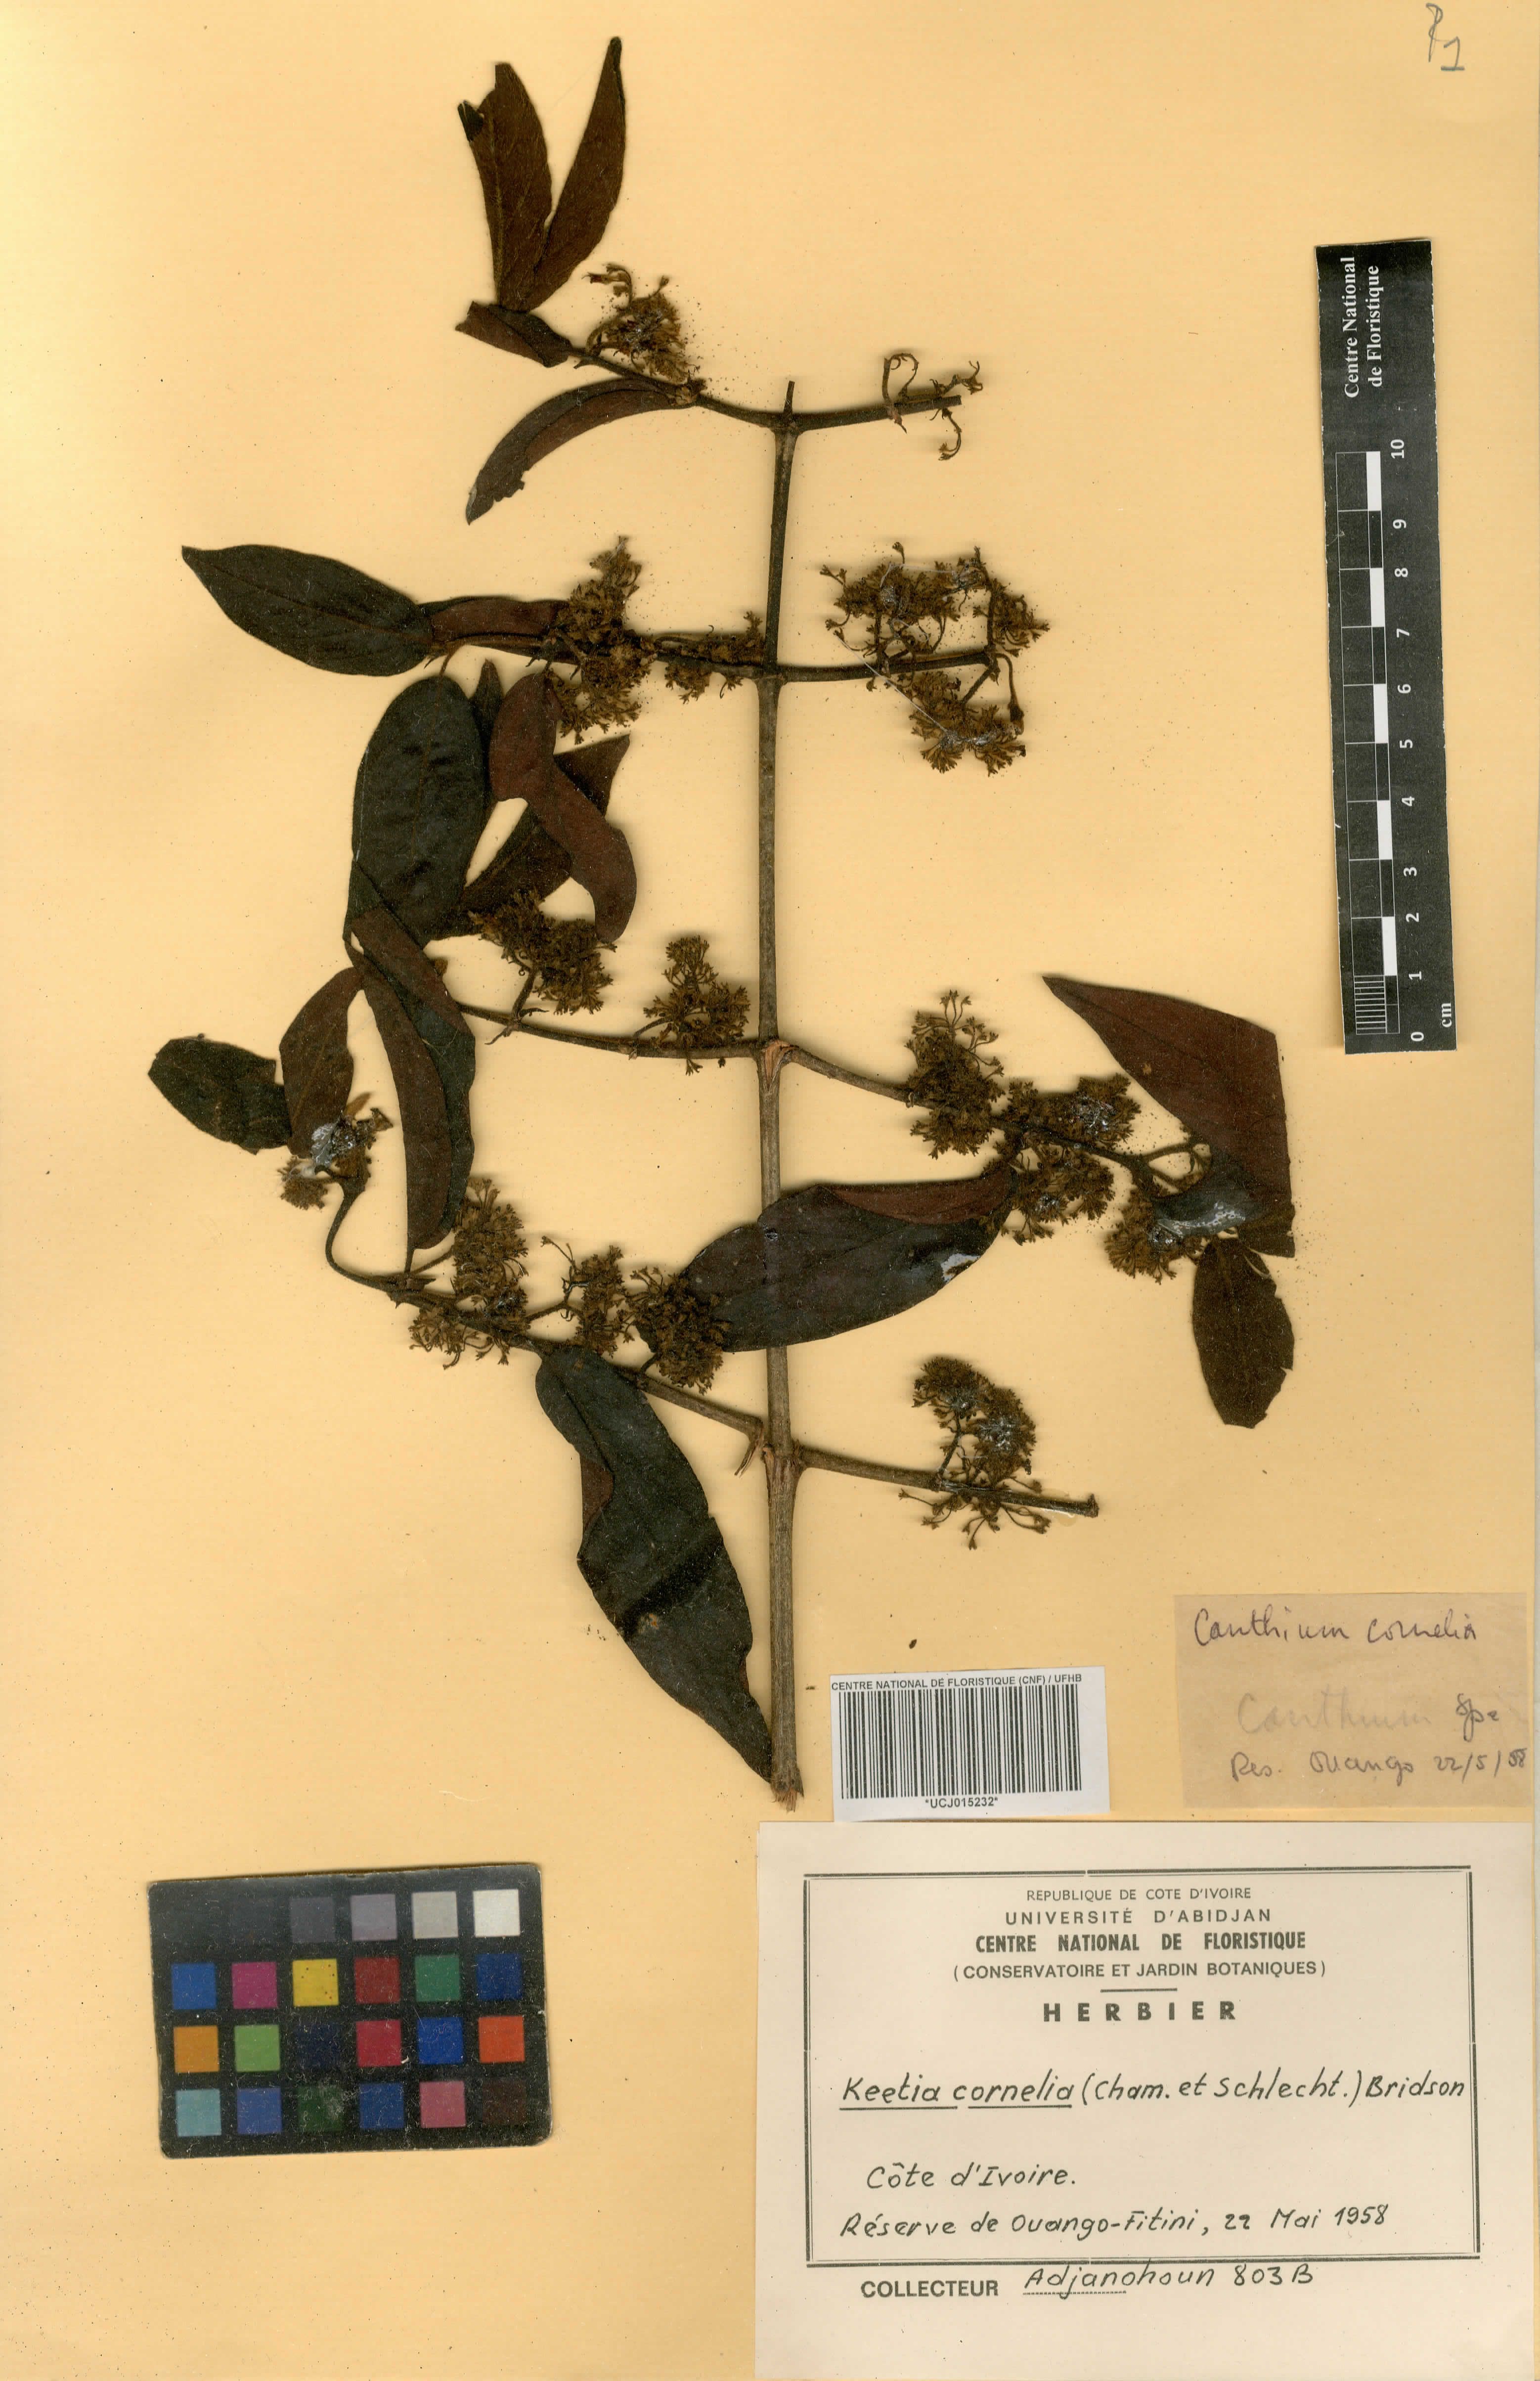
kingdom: Plantae
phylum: Tracheophyta
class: Magnoliopsida
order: Gentianales
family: Rubiaceae
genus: Keetia
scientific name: Keetia cornelia
